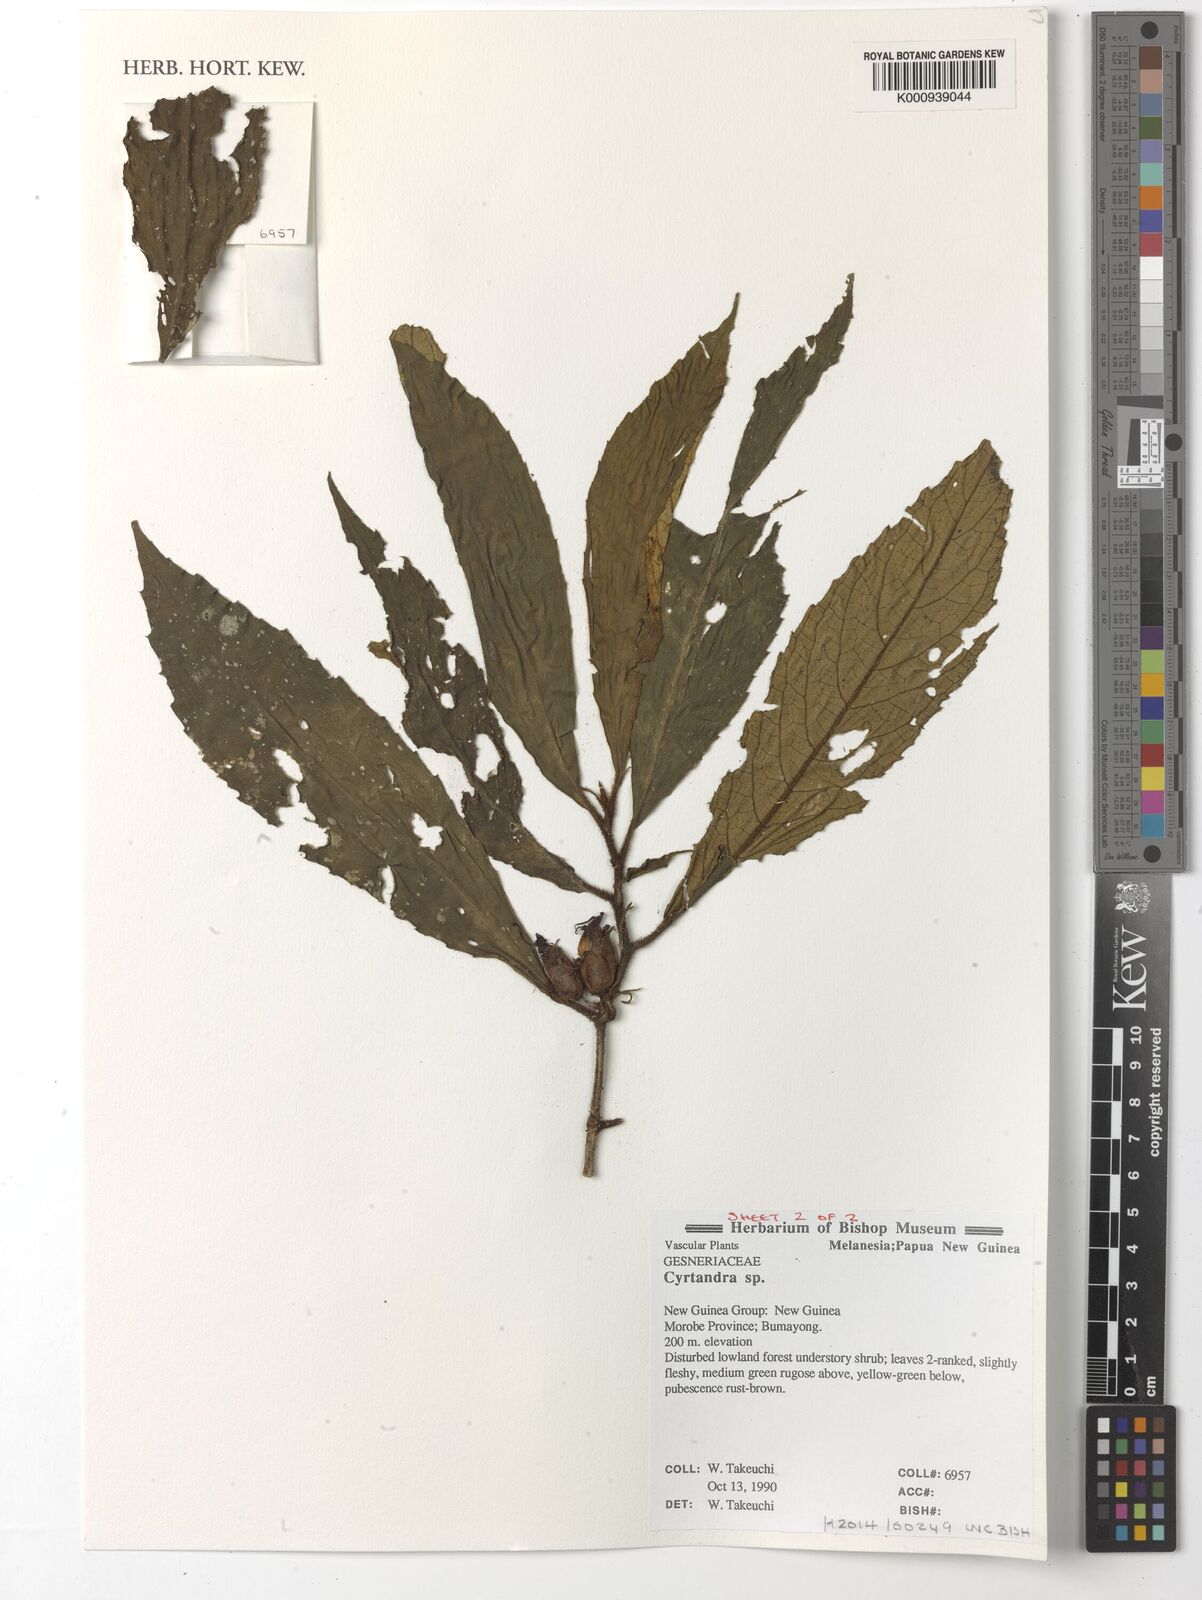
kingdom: Plantae
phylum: Tracheophyta
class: Magnoliopsida
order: Lamiales
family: Gesneriaceae
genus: Cyrtandra
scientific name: Cyrtandra
